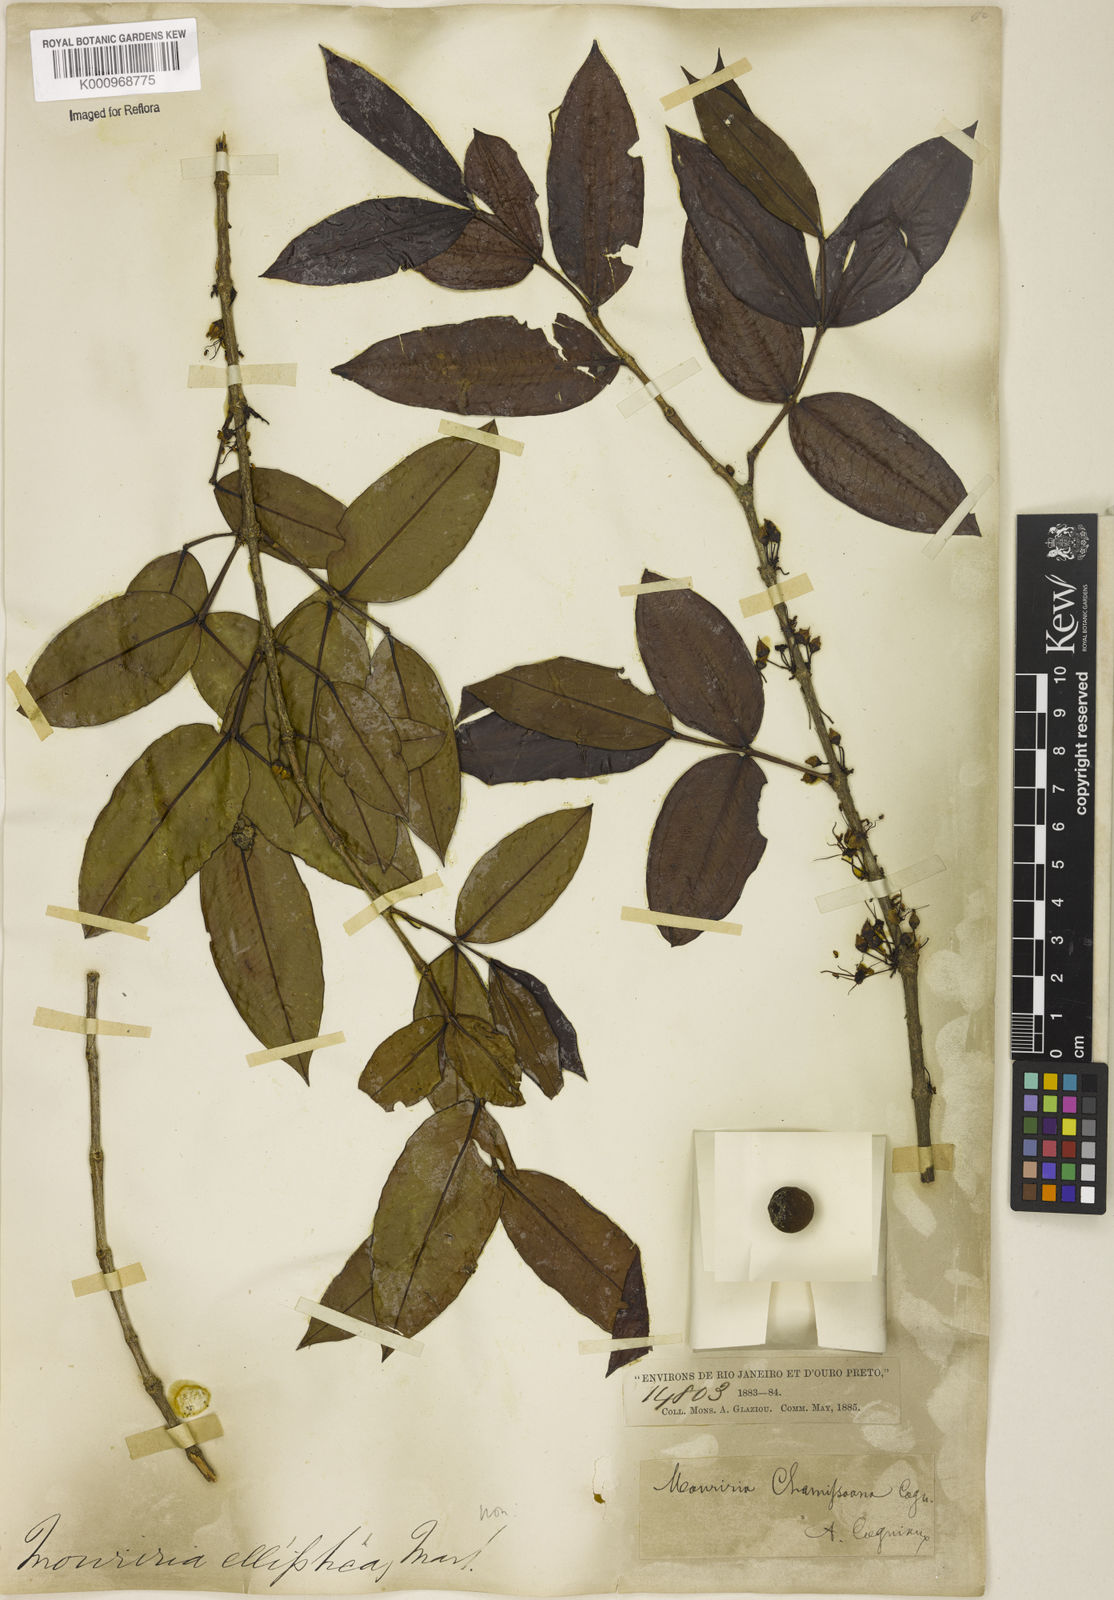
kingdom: Plantae
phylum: Tracheophyta
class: Magnoliopsida
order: Myrtales
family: Melastomataceae
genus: Mouriri
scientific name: Mouriri chamissoana
